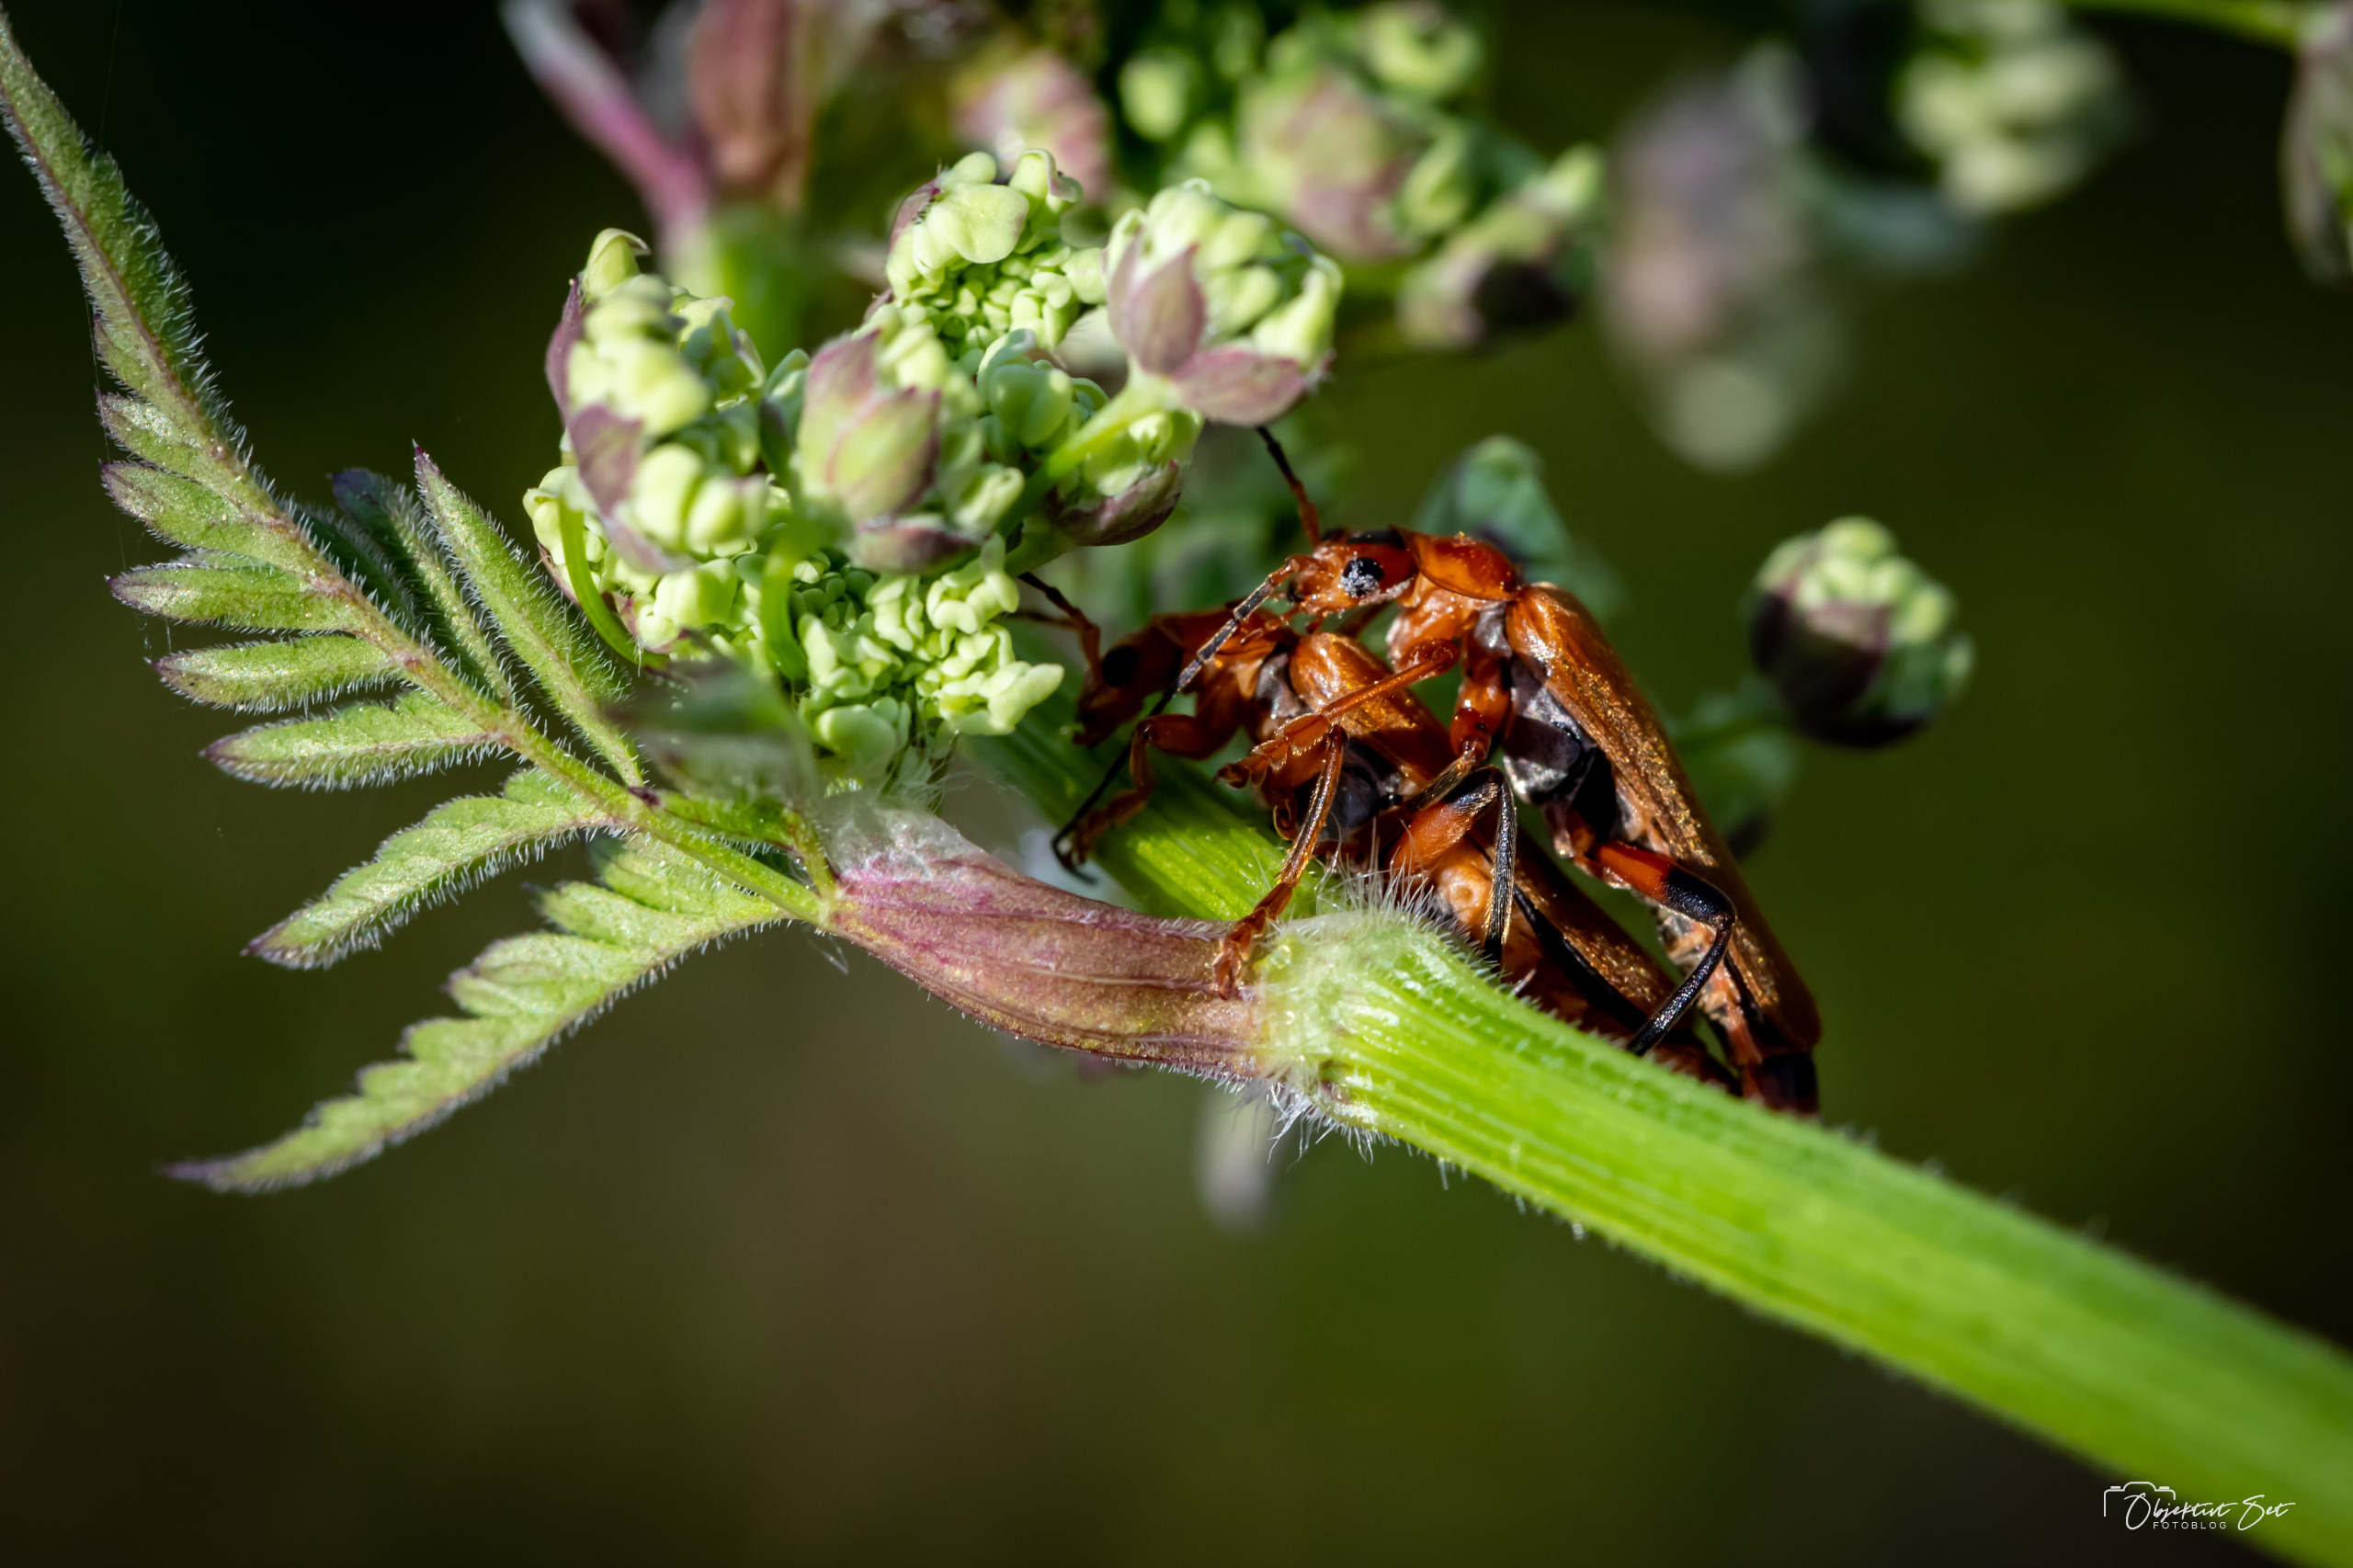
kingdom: Animalia
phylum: Arthropoda
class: Insecta
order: Coleoptera
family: Cantharidae
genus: Cantharis
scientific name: Cantharis livida
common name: Gul blødvinge
